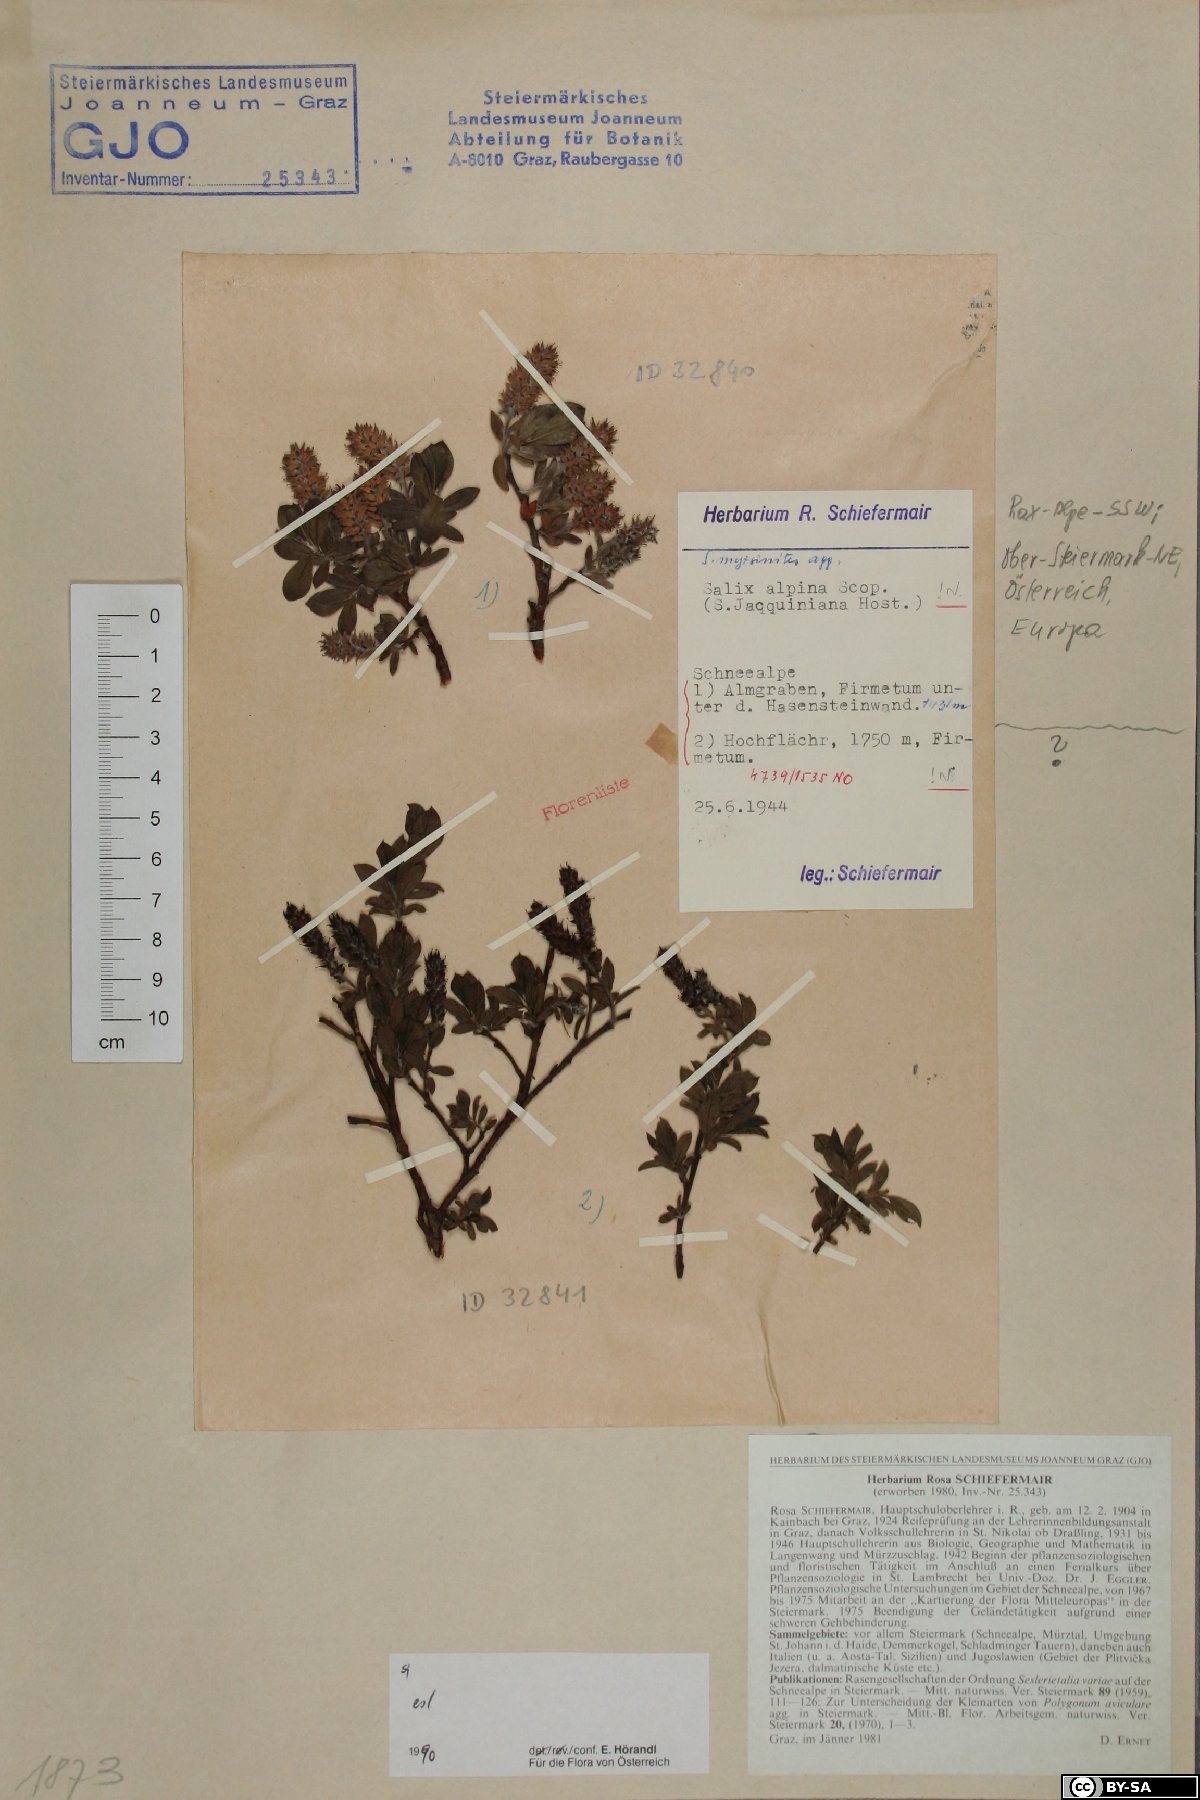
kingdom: Plantae
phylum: Tracheophyta
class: Magnoliopsida
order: Malpighiales
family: Salicaceae
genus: Salix
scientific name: Salix alpina
